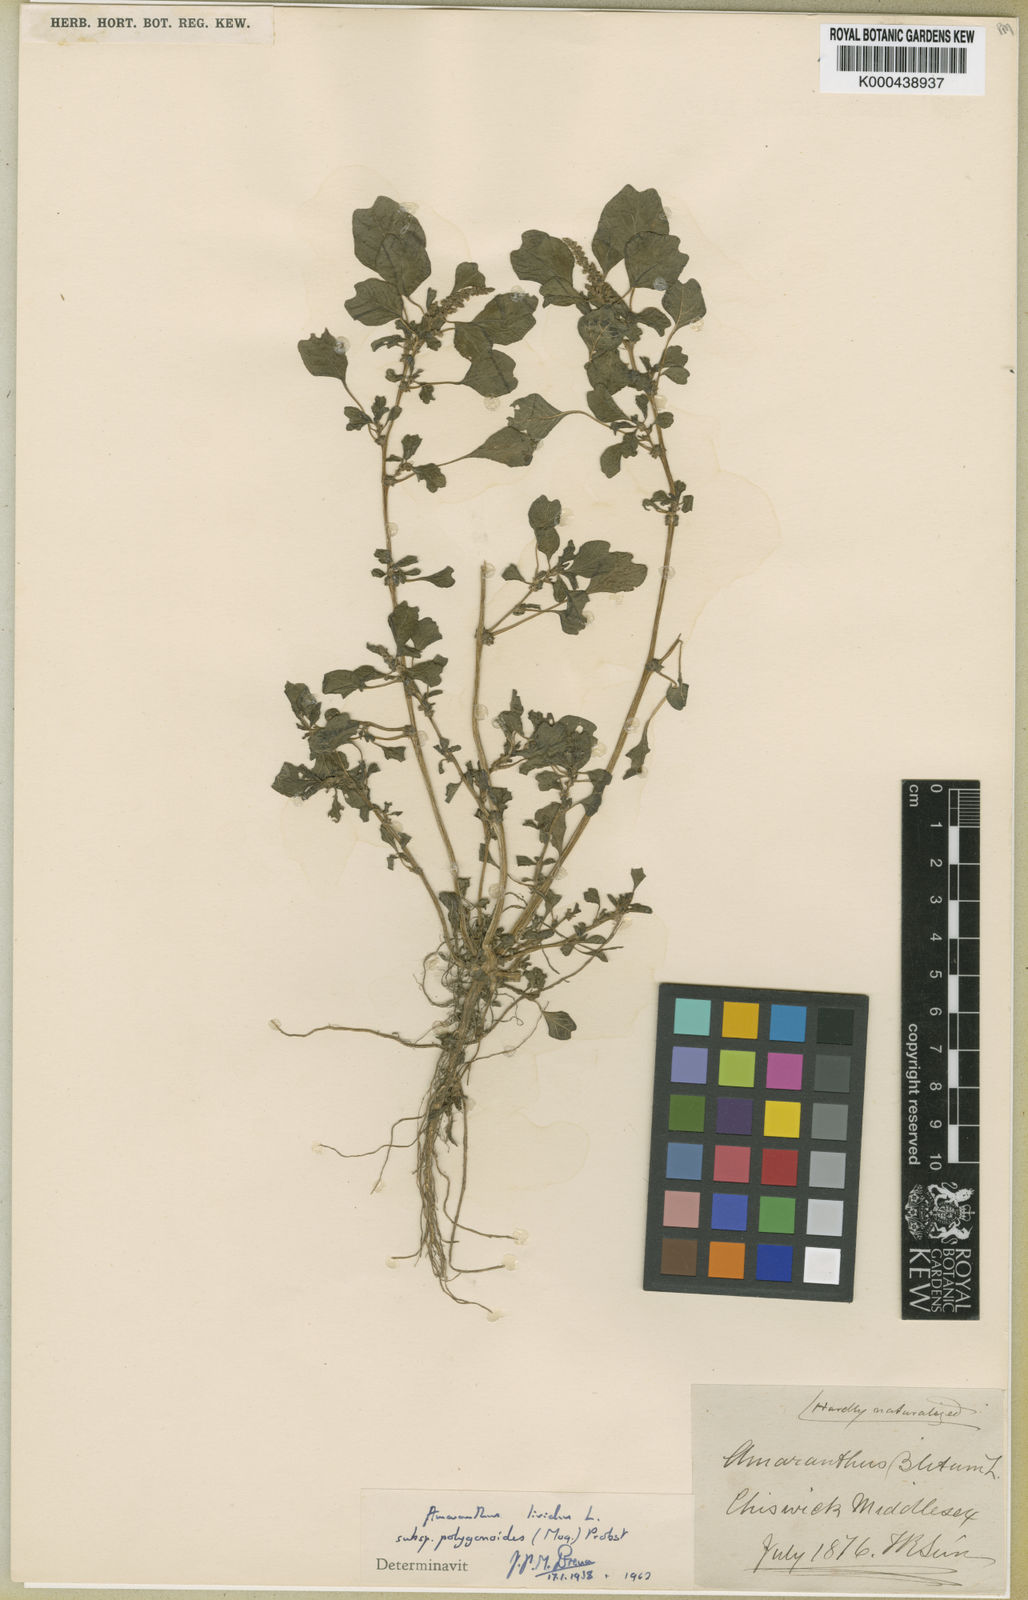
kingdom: Plantae
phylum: Tracheophyta
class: Magnoliopsida
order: Caryophyllales
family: Amaranthaceae
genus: Amaranthus
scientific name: Amaranthus emarginatus
